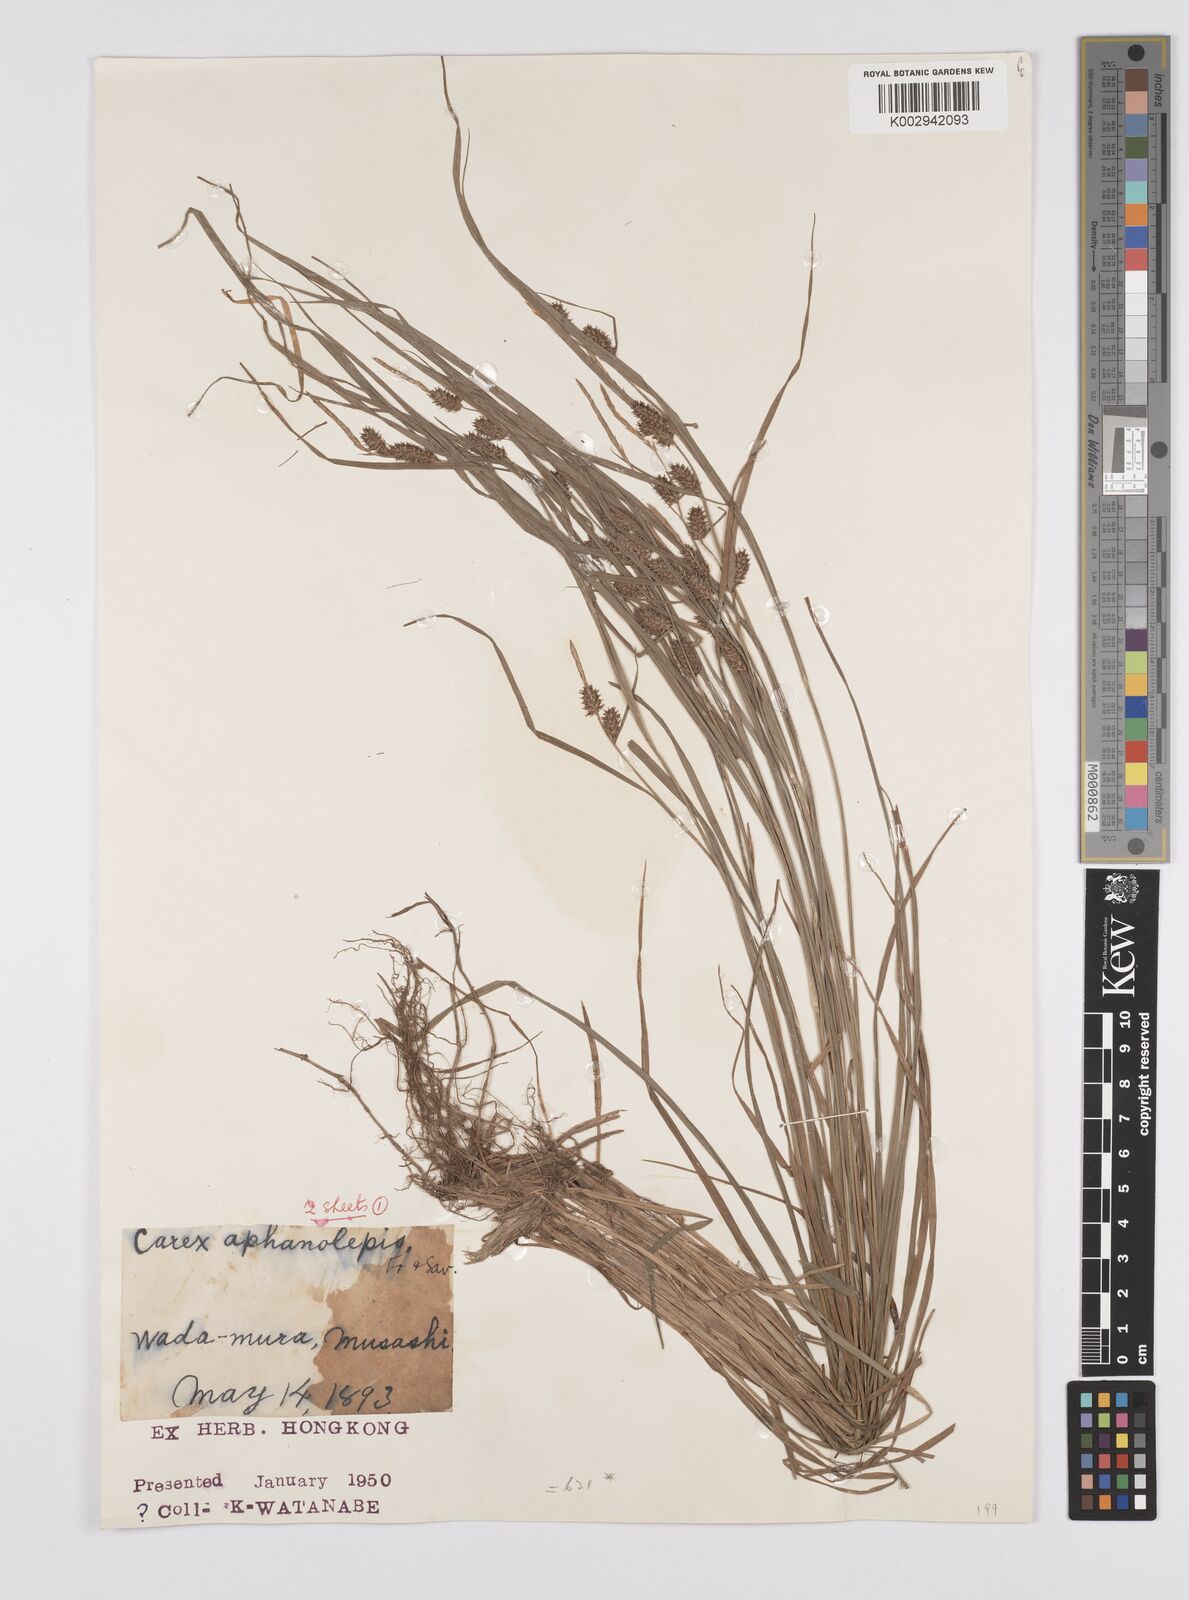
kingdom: Plantae
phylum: Tracheophyta
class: Liliopsida
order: Poales
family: Cyperaceae
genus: Carex
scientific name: Carex japonica
